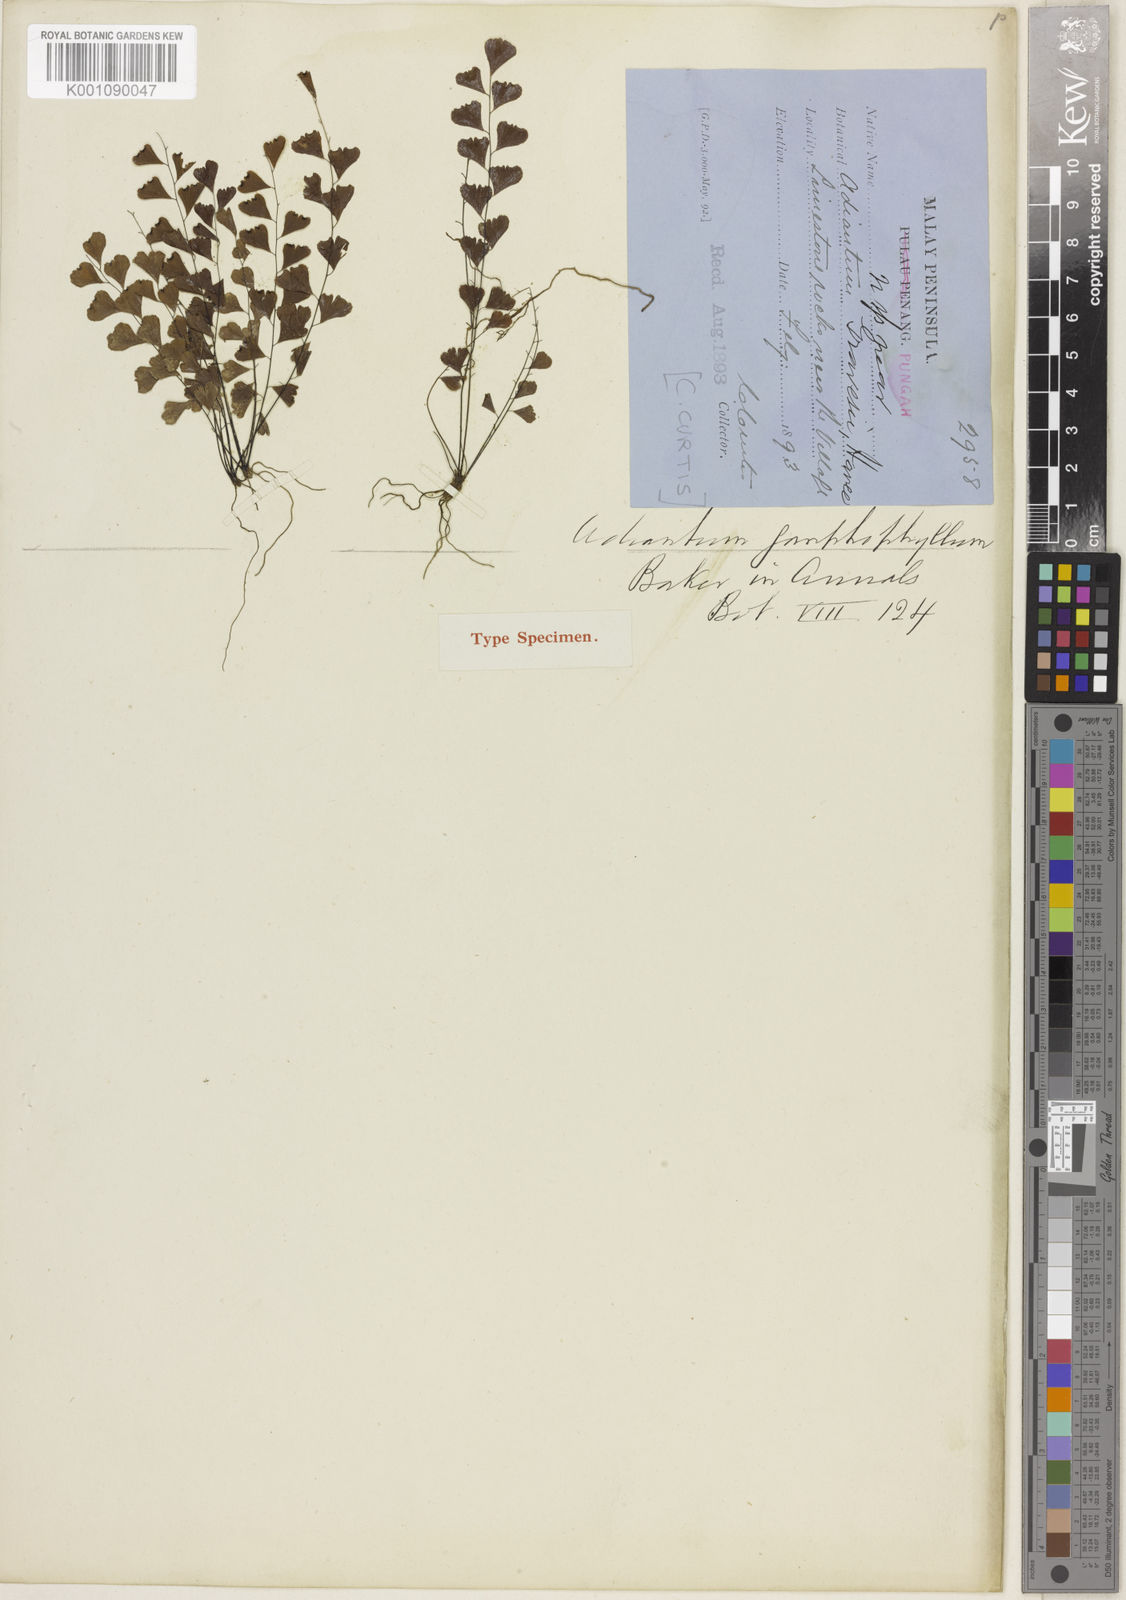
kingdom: Plantae
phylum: Tracheophyta
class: Polypodiopsida
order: Polypodiales
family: Pteridaceae
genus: Adiantum
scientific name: Adiantum gomphophyllum
